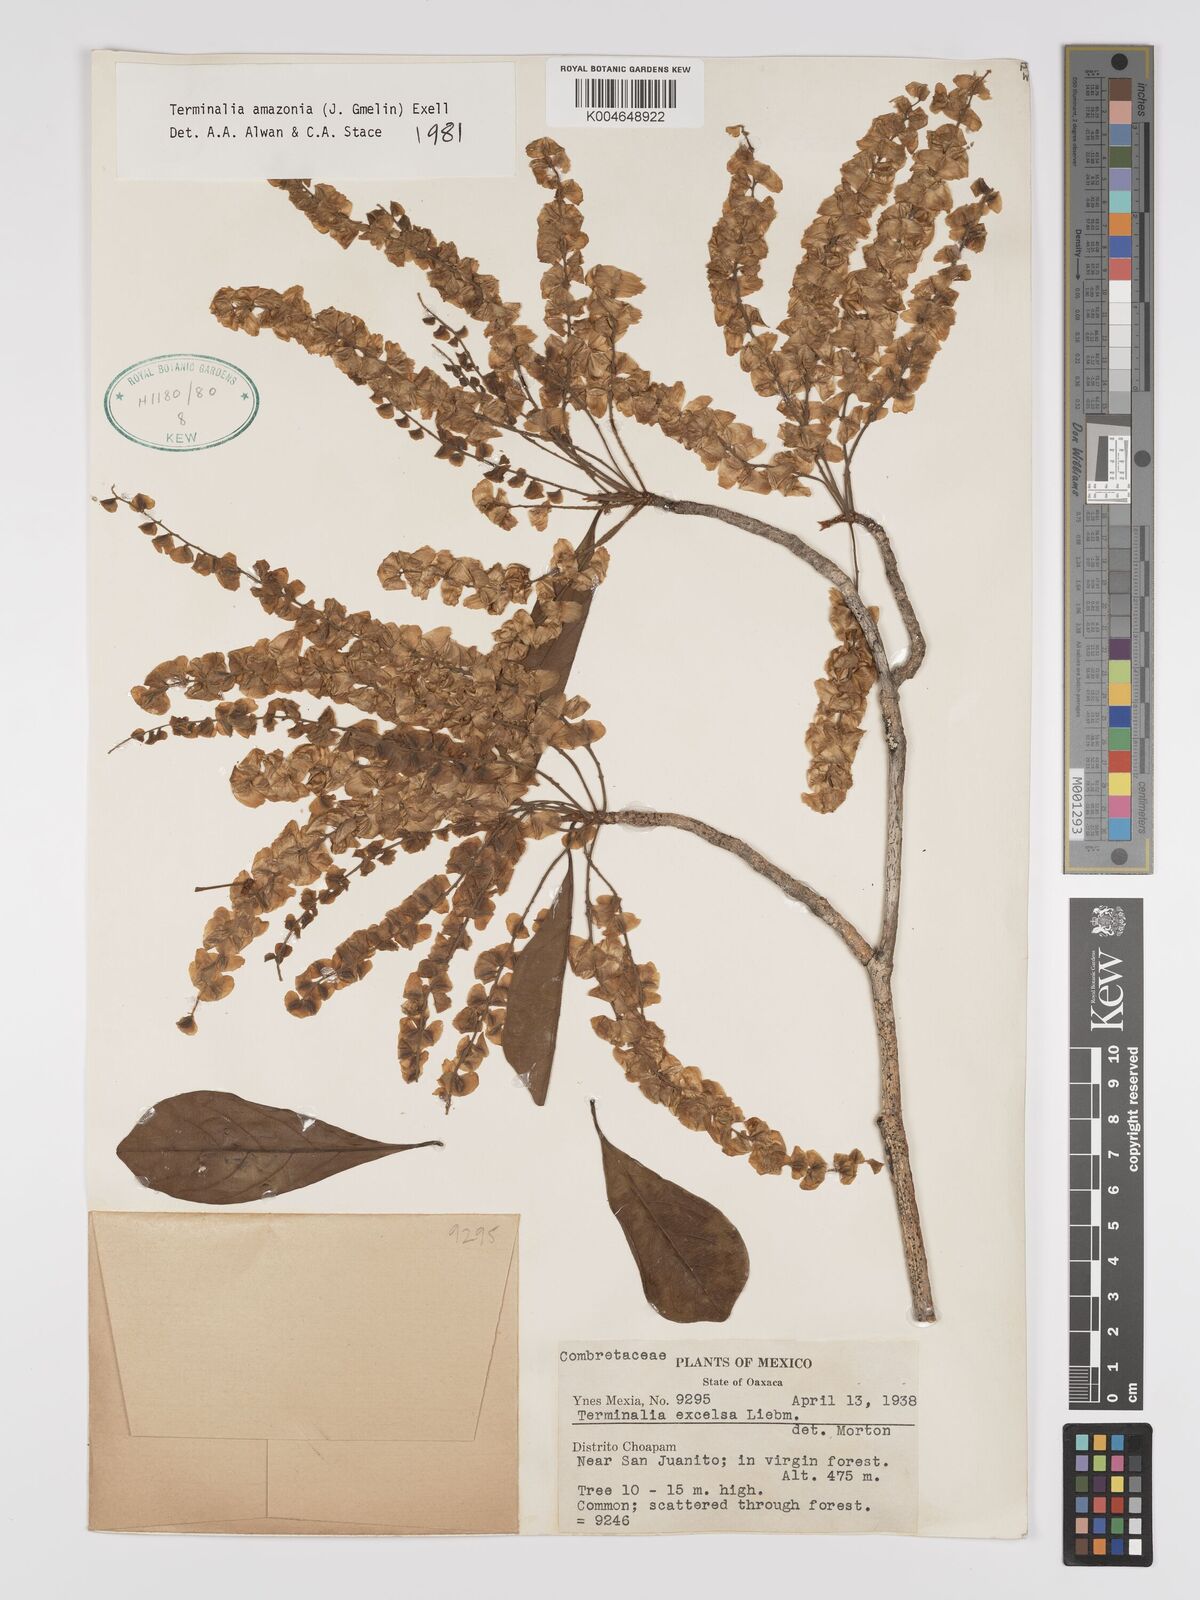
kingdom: Plantae
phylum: Tracheophyta
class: Magnoliopsida
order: Myrtales
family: Combretaceae
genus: Terminalia
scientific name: Terminalia amazonica
